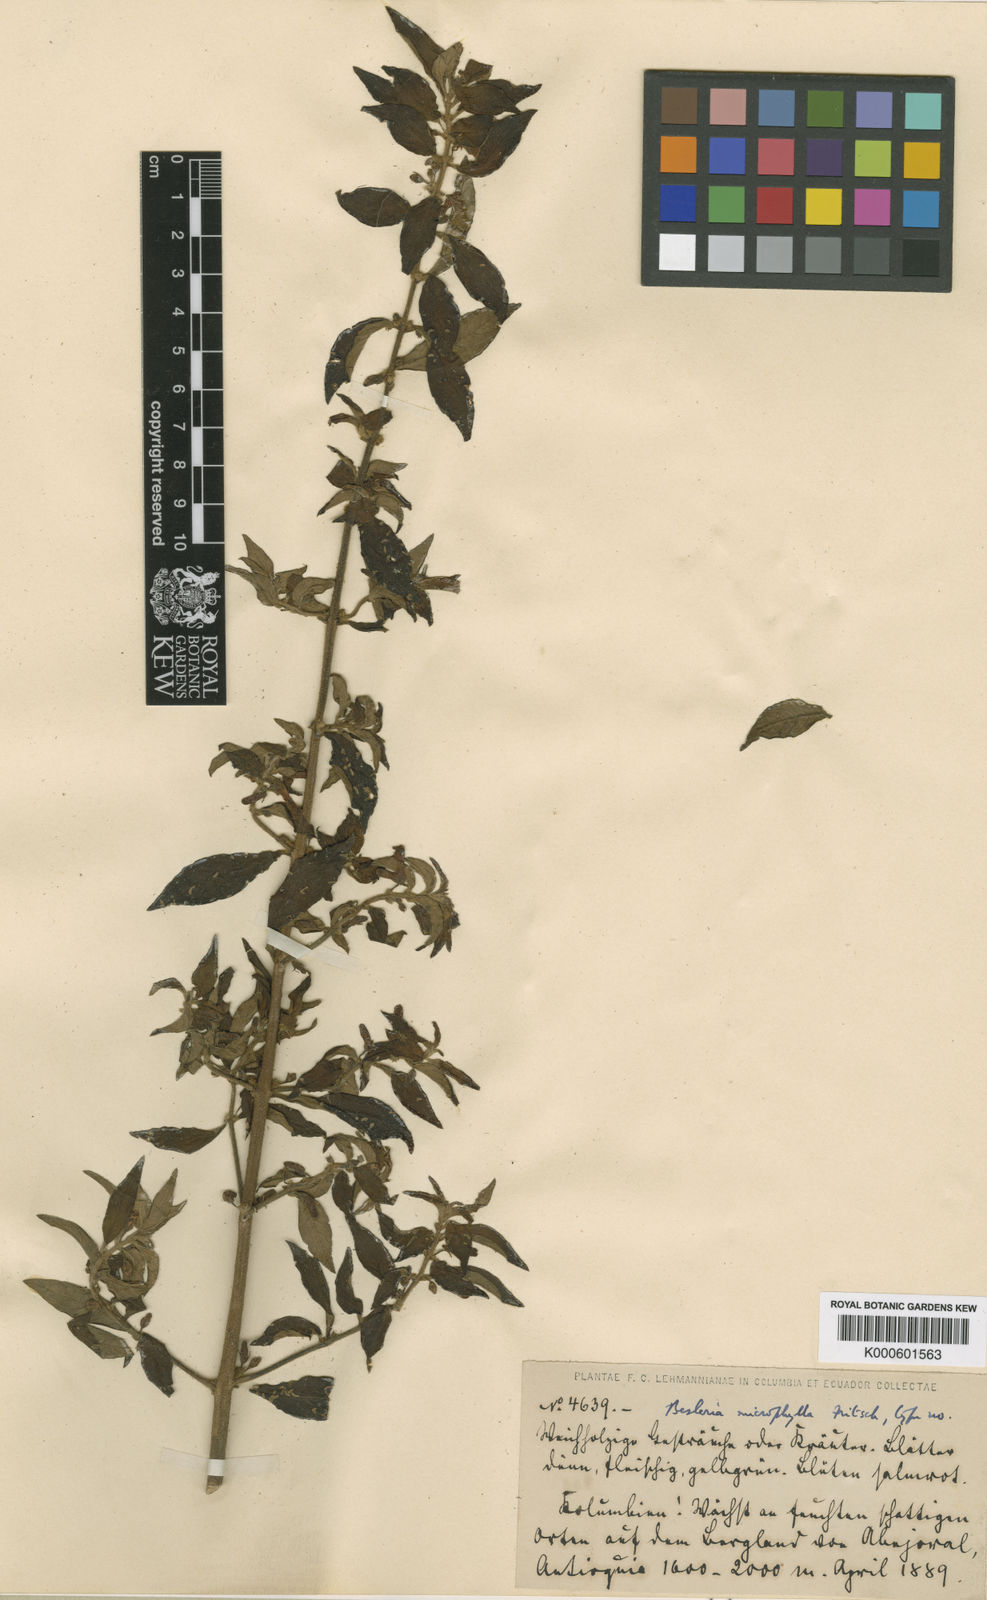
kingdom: Plantae
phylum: Tracheophyta
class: Magnoliopsida
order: Lamiales
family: Gesneriaceae
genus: Besleria
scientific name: Besleria microphylla
